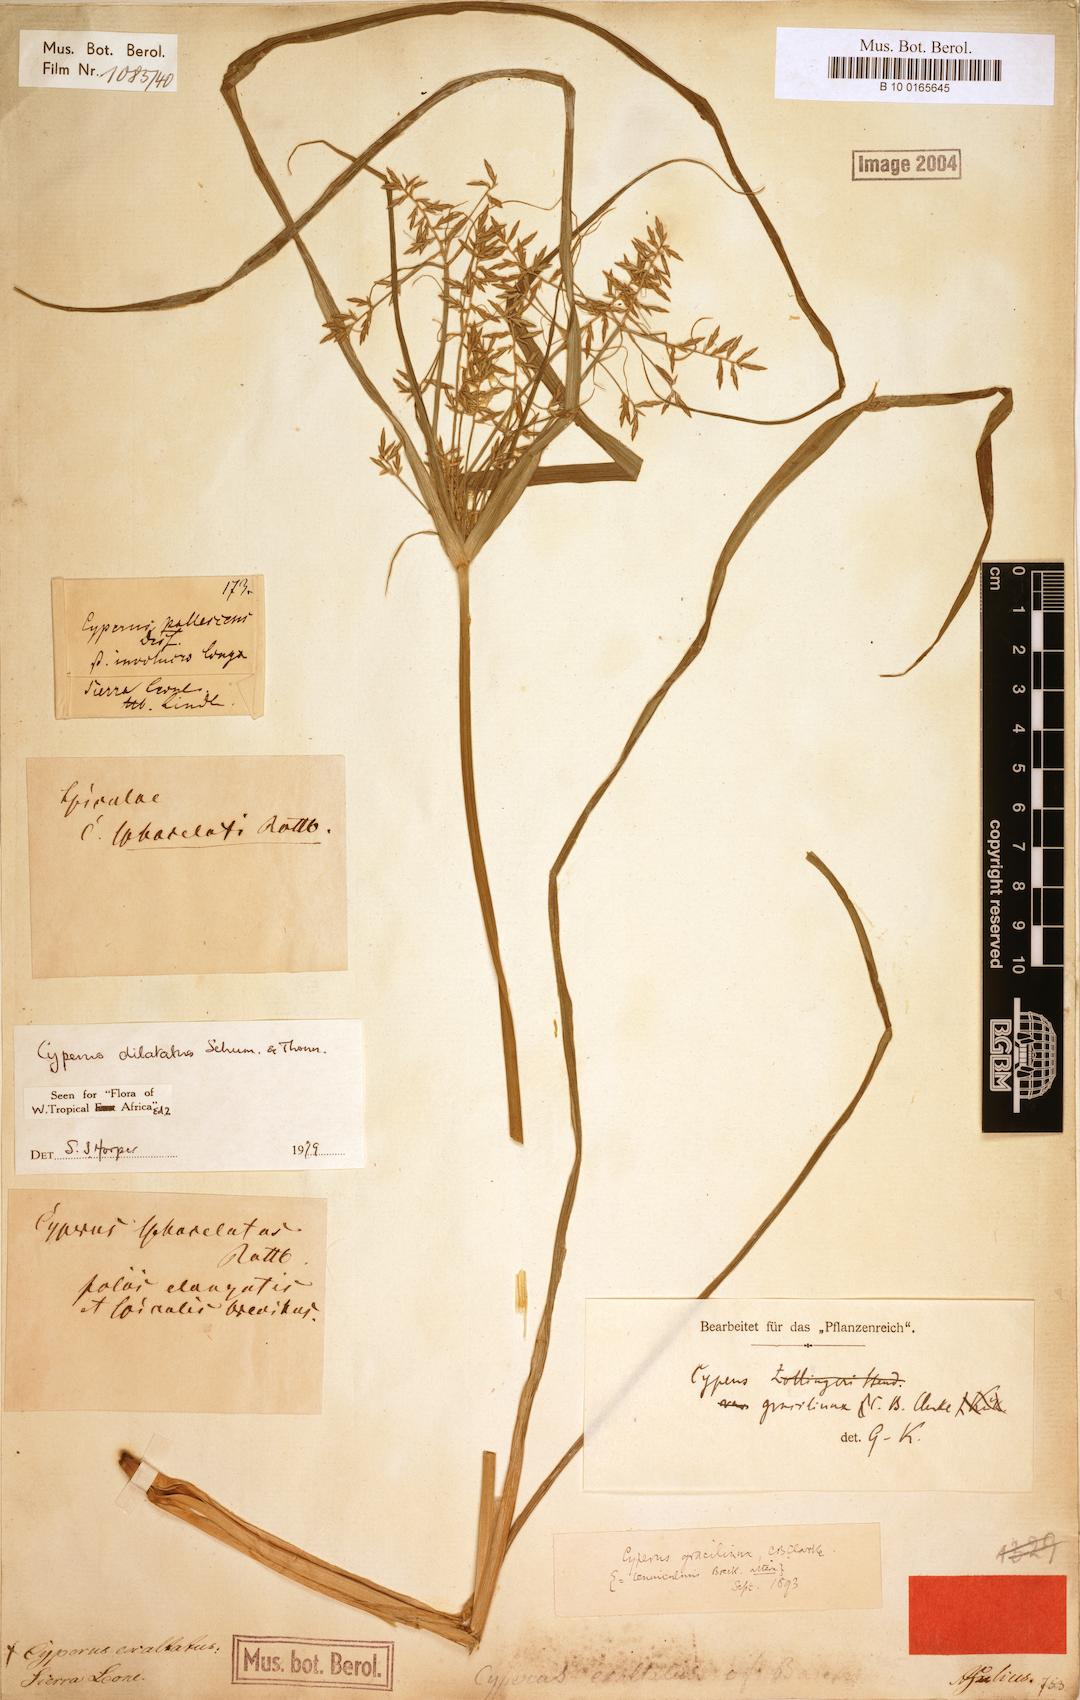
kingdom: Plantae
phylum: Tracheophyta
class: Liliopsida
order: Poales
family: Cyperaceae
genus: Cyperus
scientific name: Cyperus dilatatus
